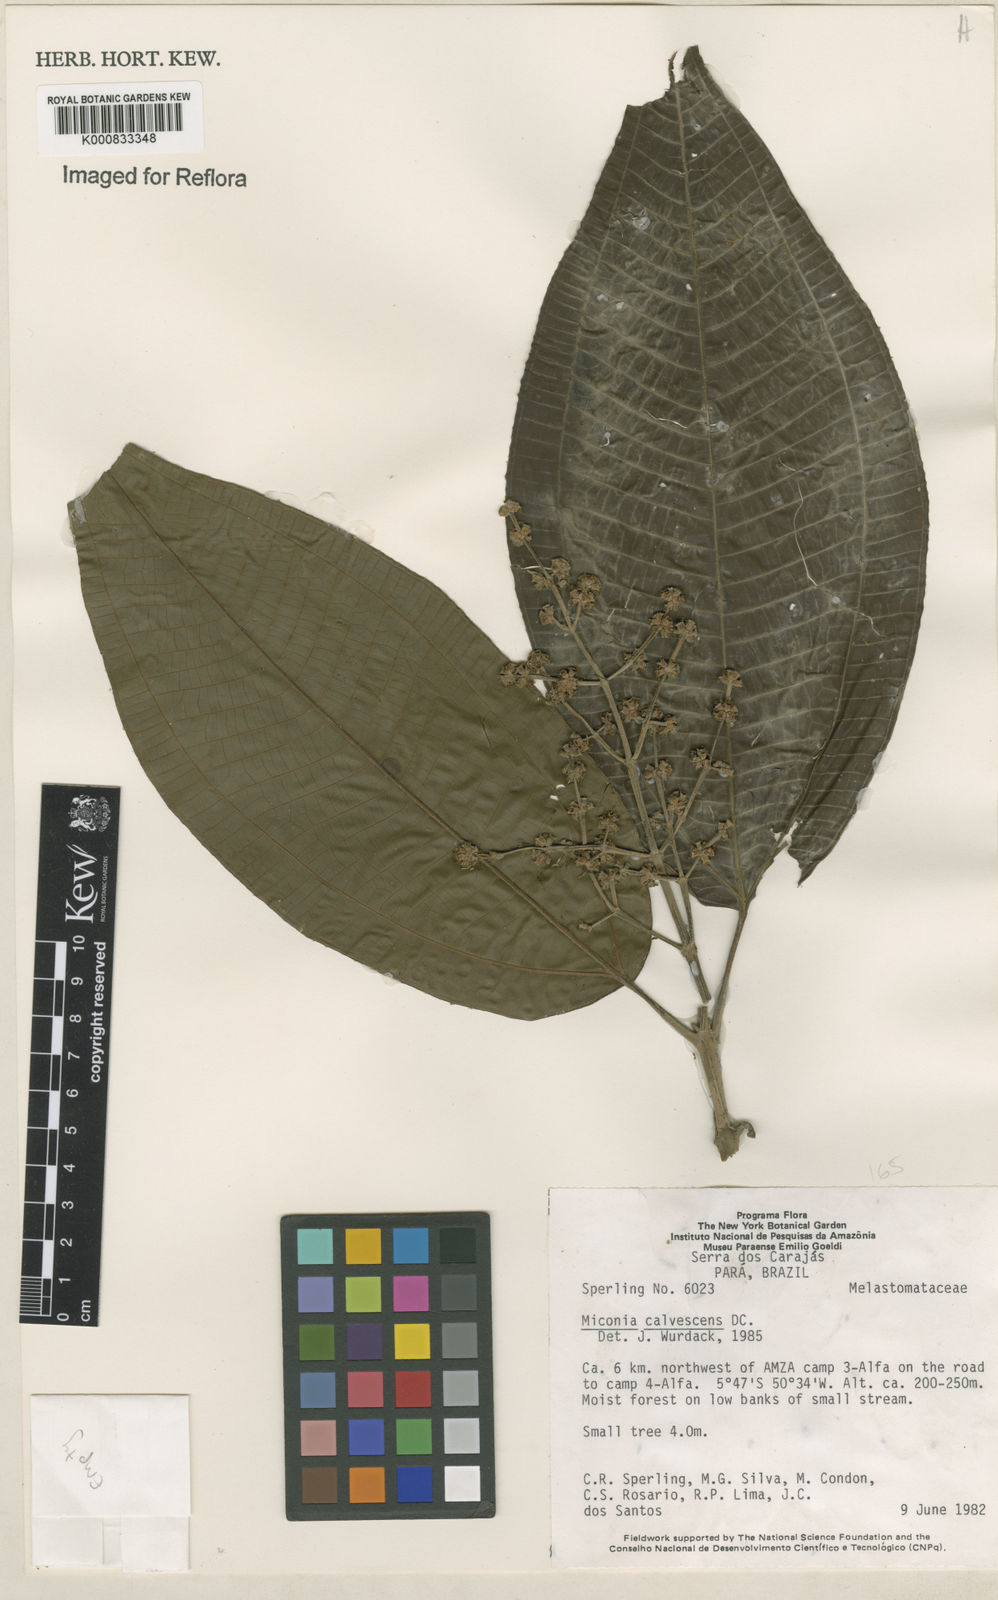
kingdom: Plantae
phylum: Tracheophyta
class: Magnoliopsida
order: Myrtales
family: Melastomataceae
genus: Miconia
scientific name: Miconia calvescens
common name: Purple plague
